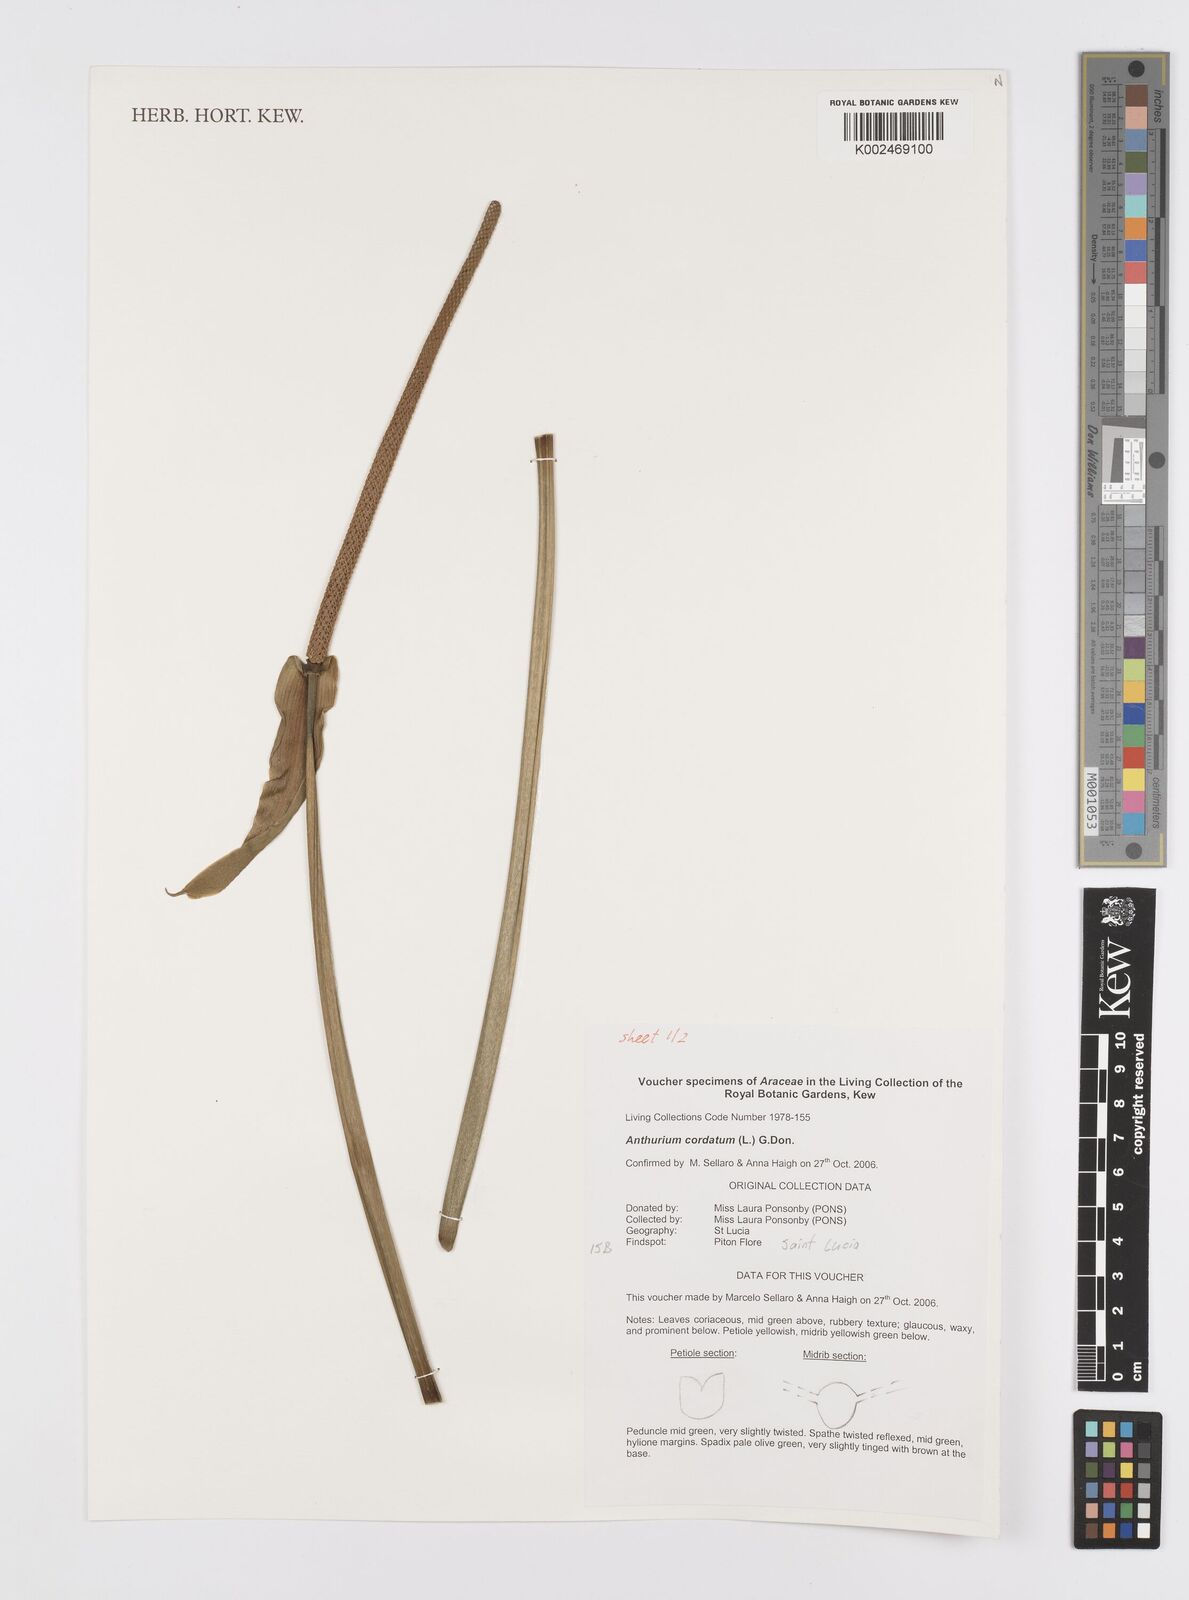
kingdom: Plantae
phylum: Tracheophyta
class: Liliopsida
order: Alismatales
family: Araceae
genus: Anthurium
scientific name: Anthurium cordatum
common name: Monkey tail
